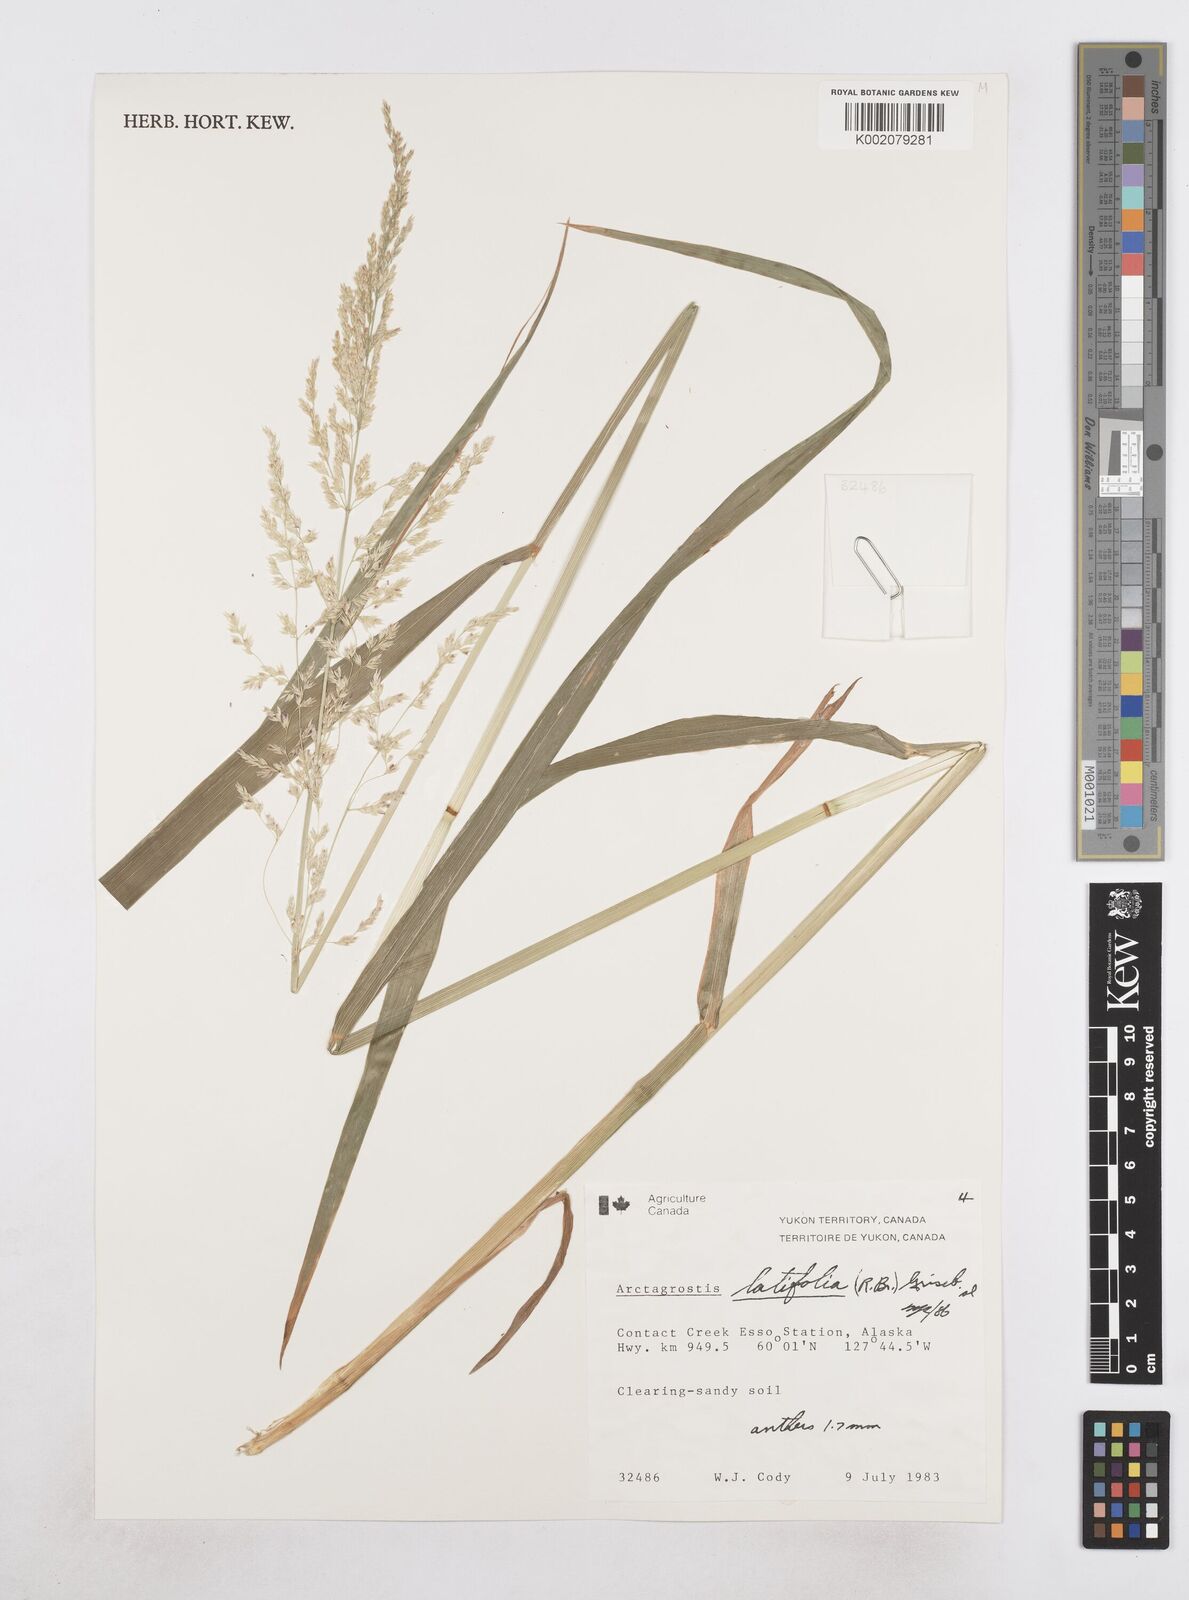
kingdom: Plantae
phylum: Tracheophyta
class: Liliopsida
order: Poales
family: Poaceae
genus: Arctagrostis
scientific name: Arctagrostis latifolia
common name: Arctic grass
